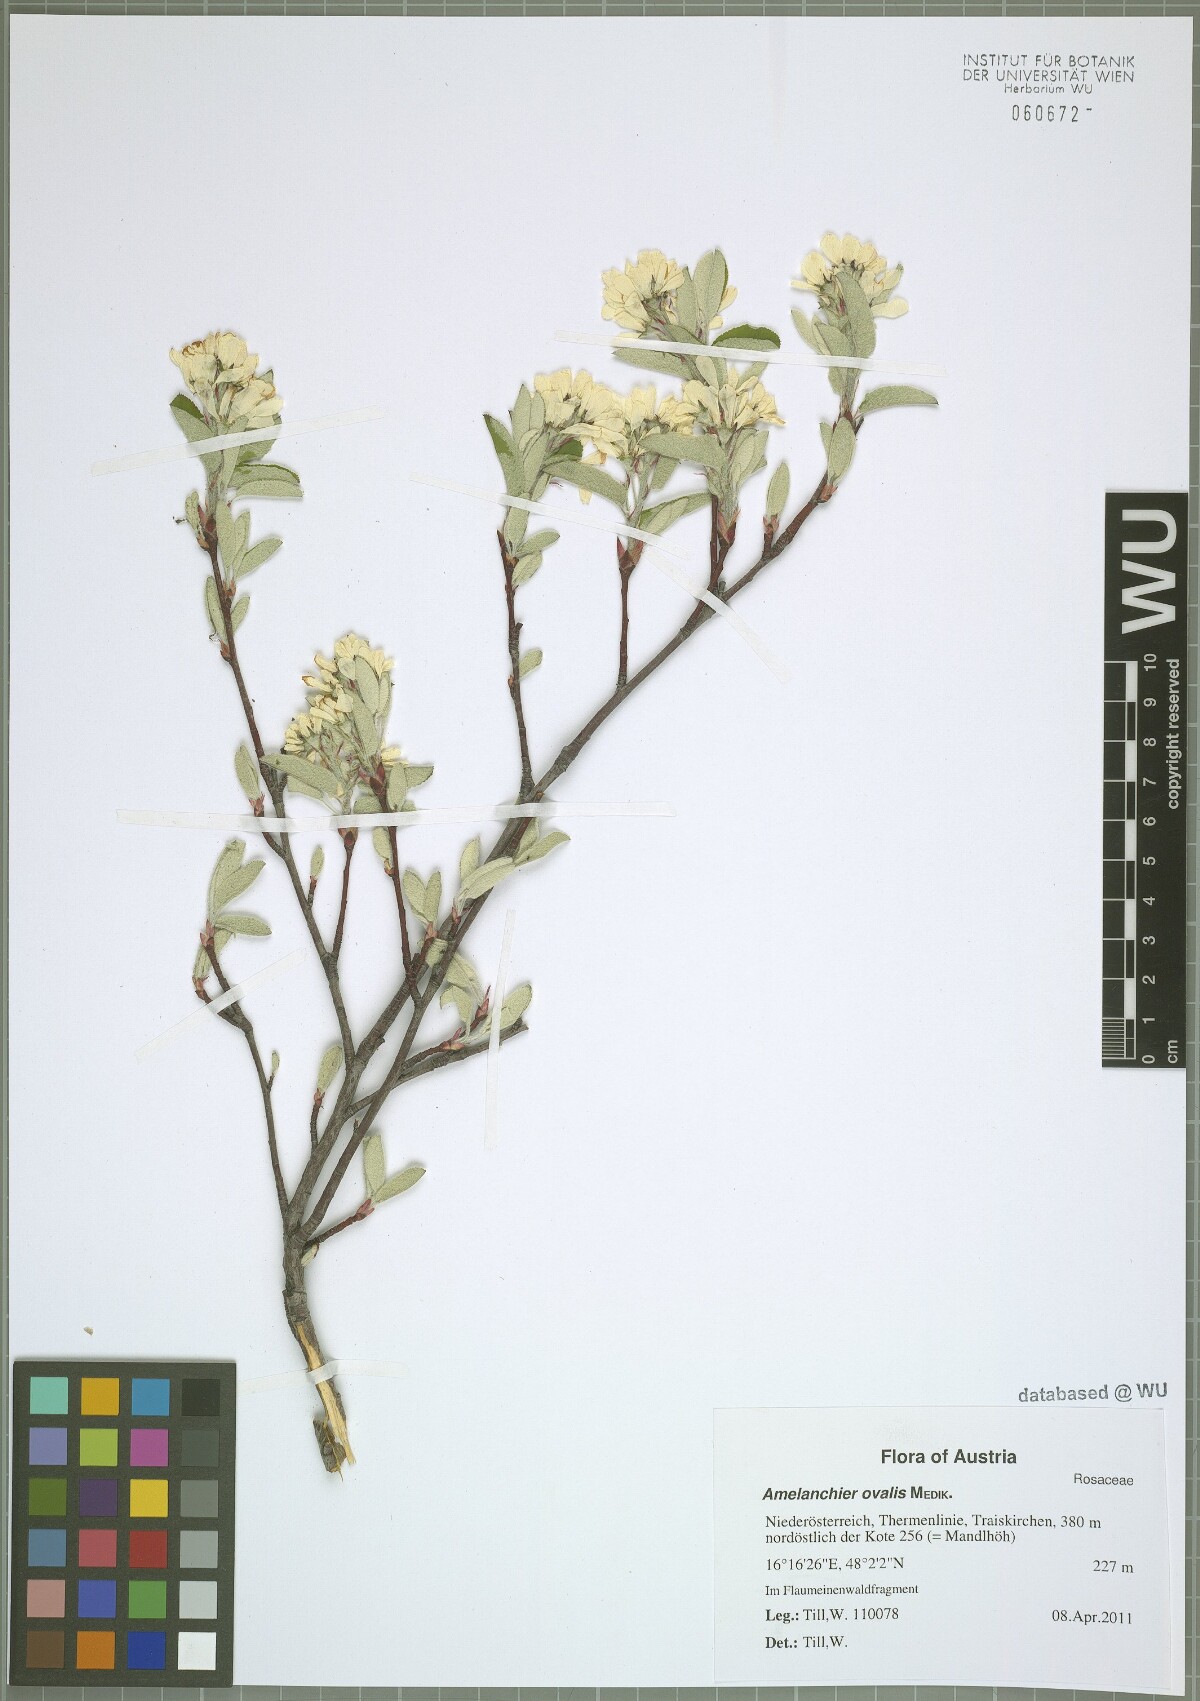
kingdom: Plantae
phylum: Tracheophyta
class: Magnoliopsida
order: Rosales
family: Rosaceae
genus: Amelanchier
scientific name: Amelanchier ovalis
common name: Serviceberry
